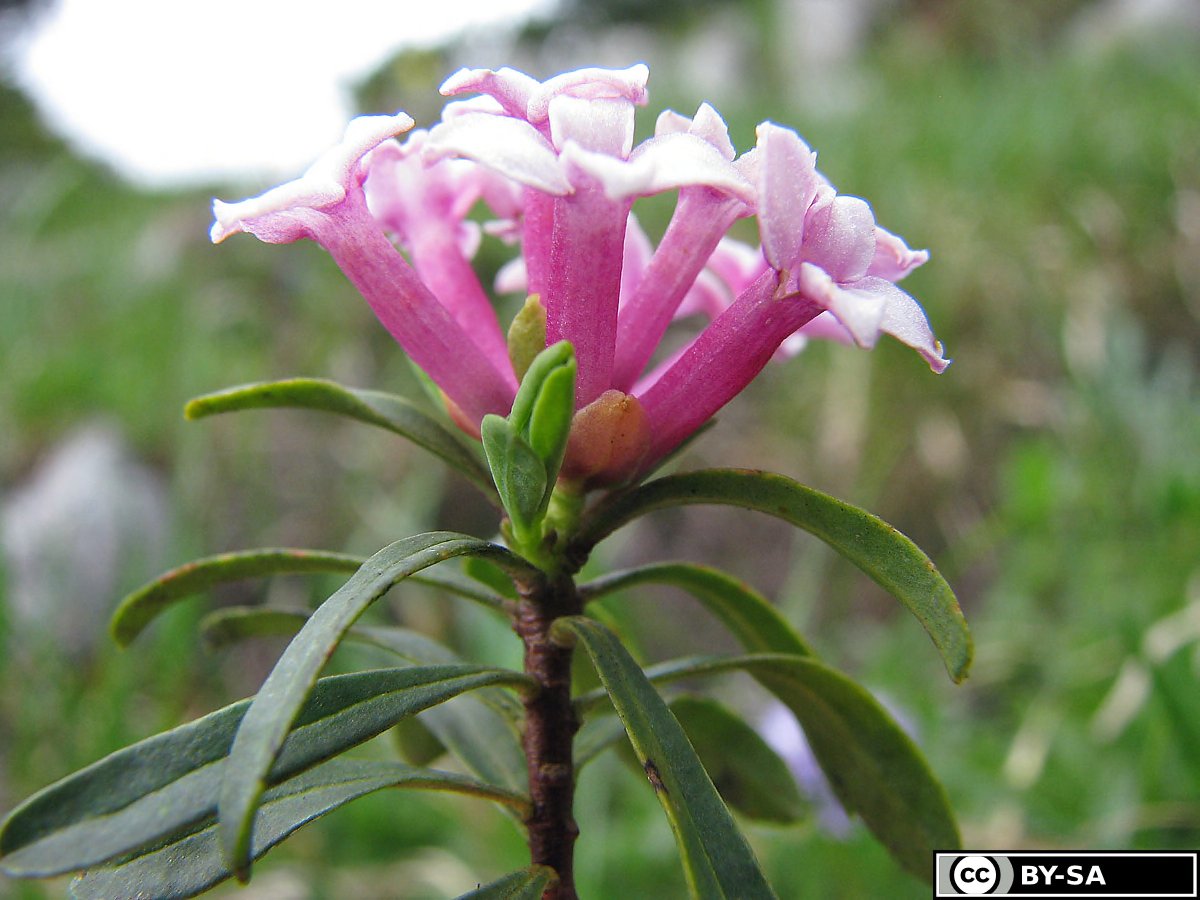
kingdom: Plantae
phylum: Tracheophyta
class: Magnoliopsida
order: Malvales
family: Thymelaeaceae
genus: Daphne
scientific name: Daphne striata
